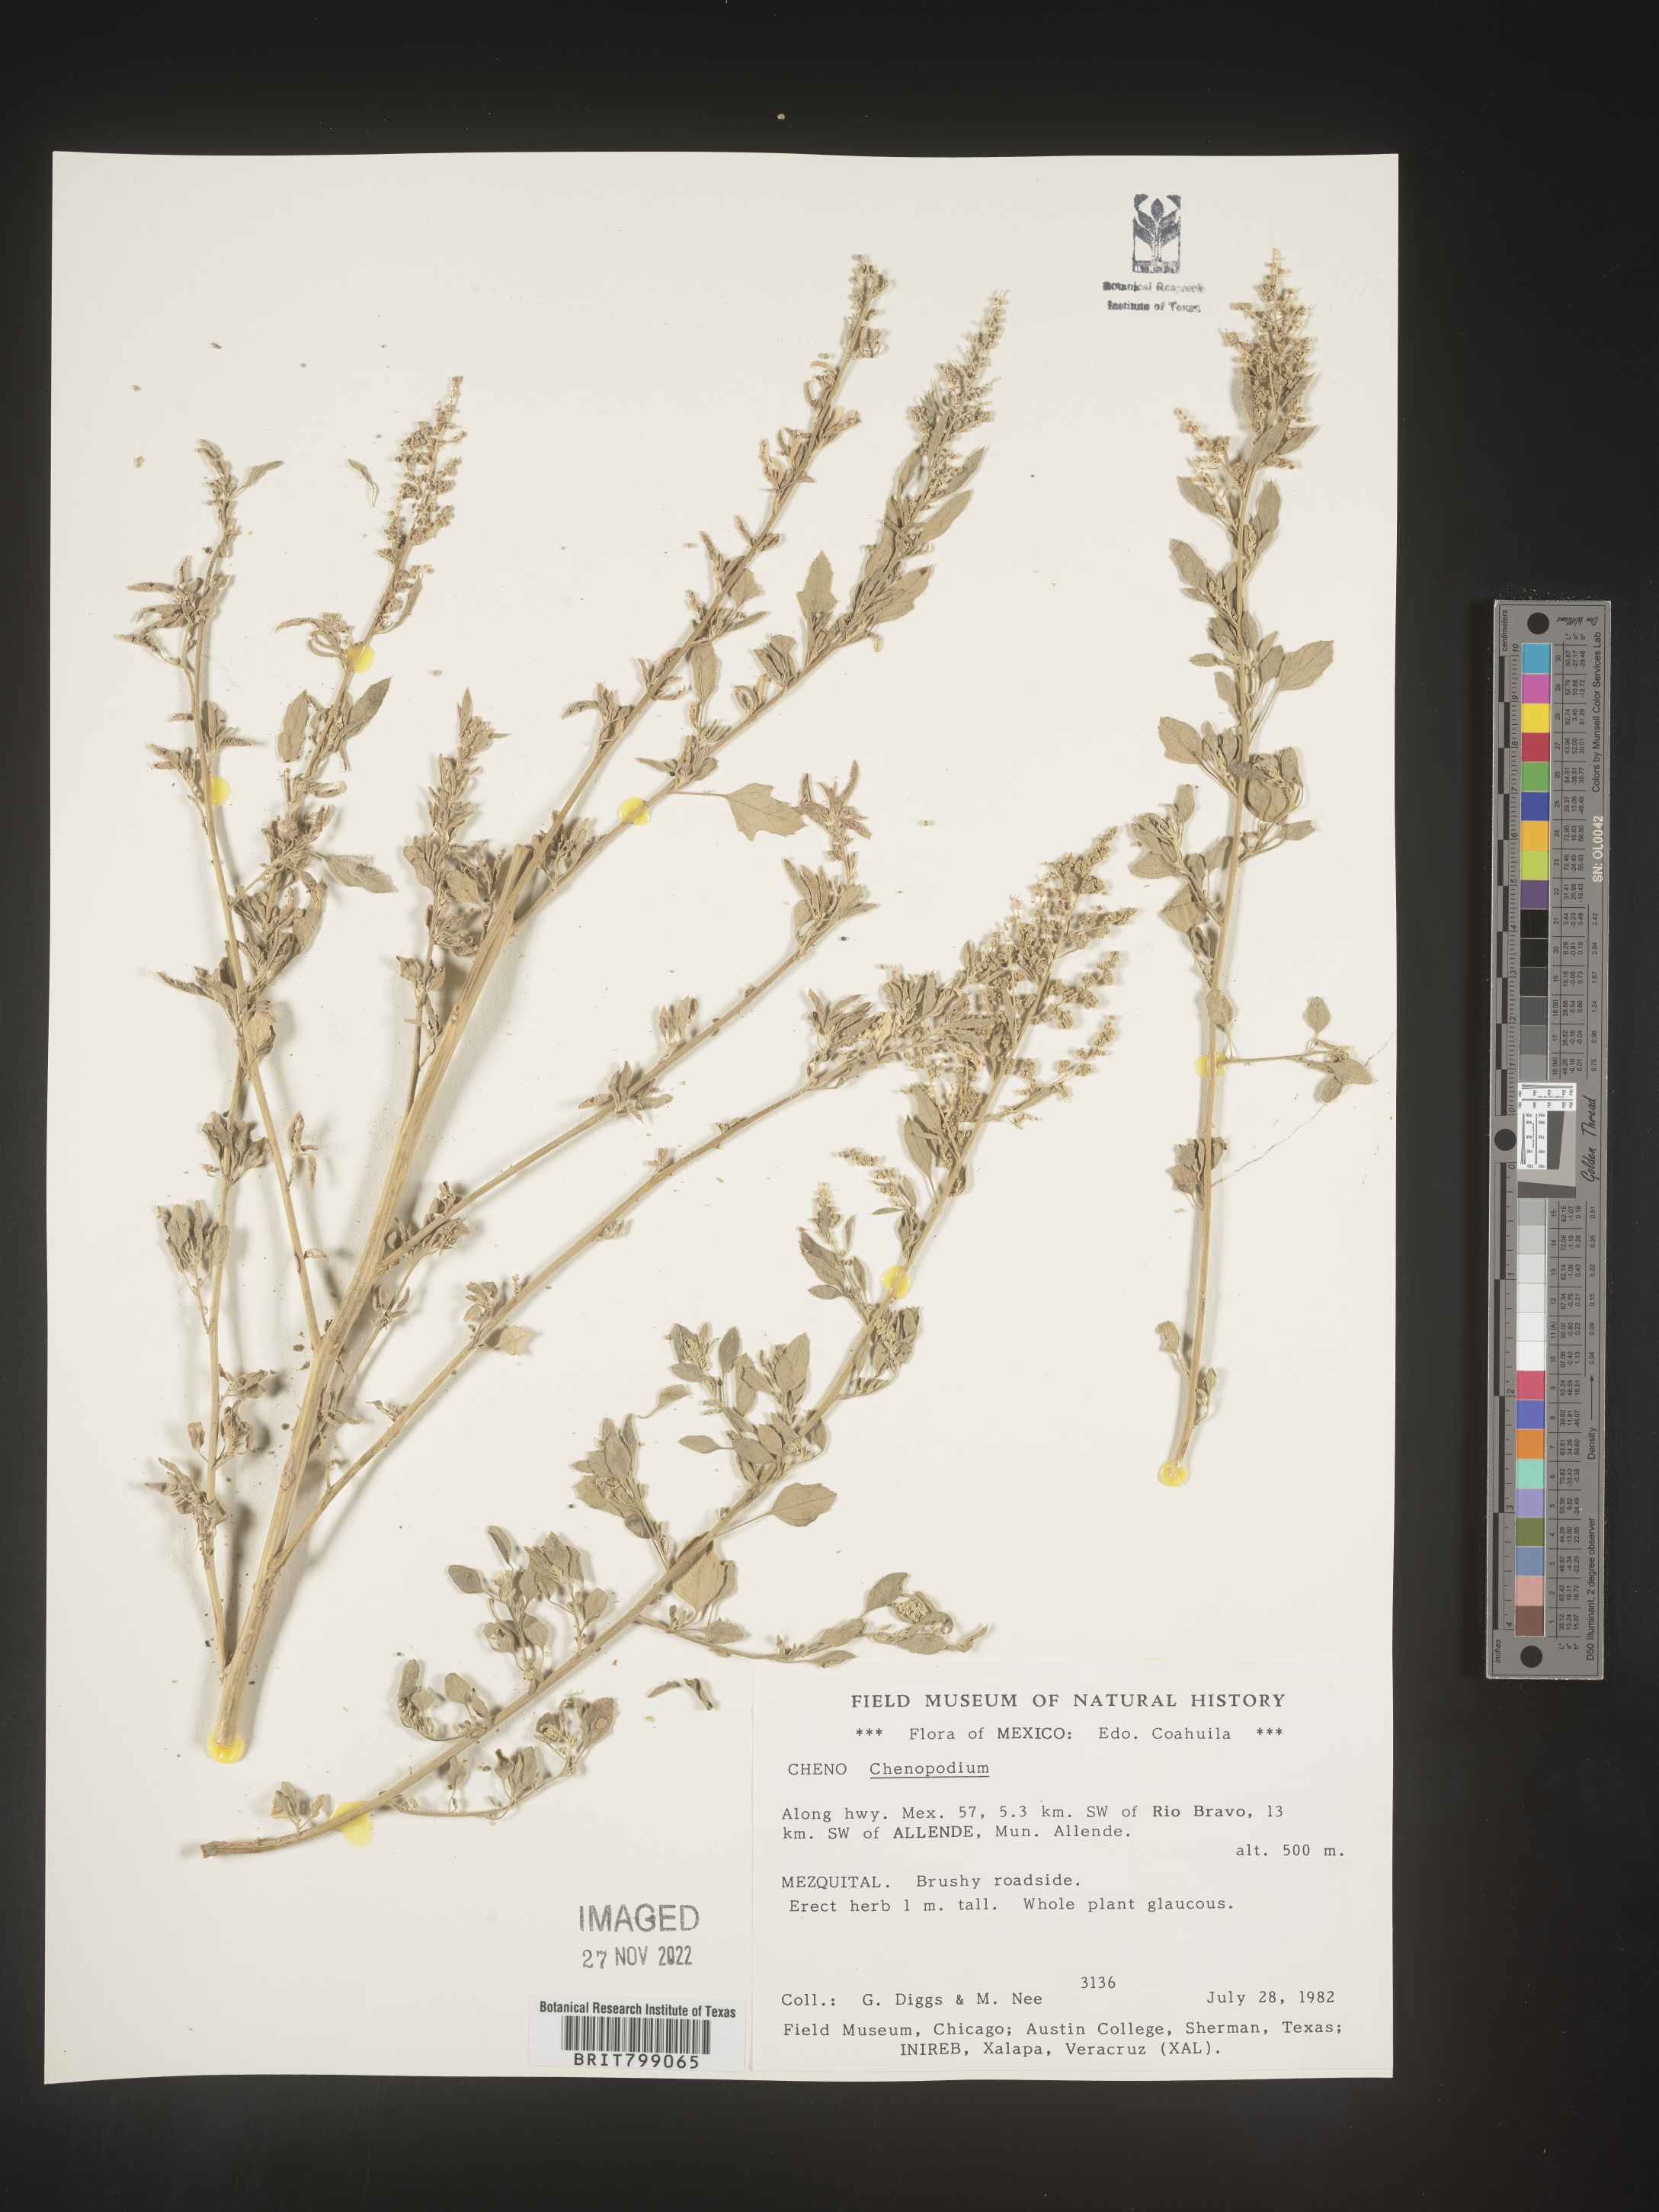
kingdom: Plantae
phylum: Tracheophyta
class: Magnoliopsida
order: Caryophyllales
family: Amaranthaceae
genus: Chenopodium
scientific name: Chenopodium
